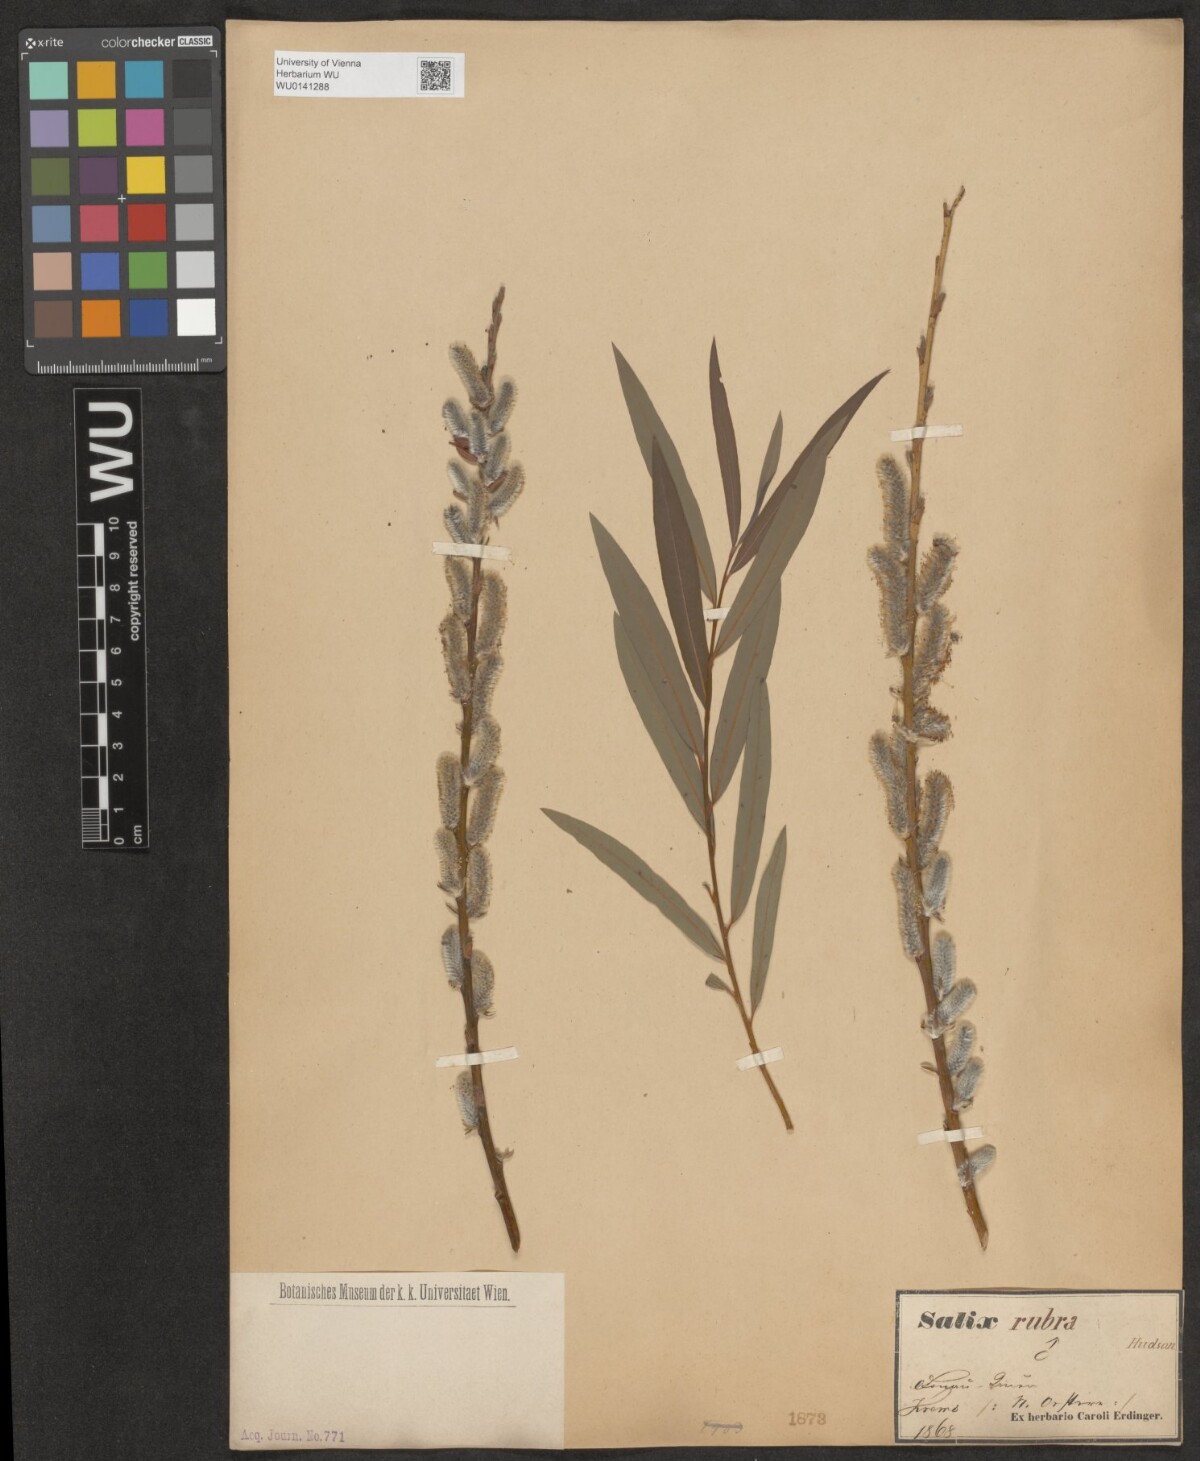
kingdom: Plantae
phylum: Tracheophyta
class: Magnoliopsida
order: Malpighiales
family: Salicaceae
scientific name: Salicaceae
